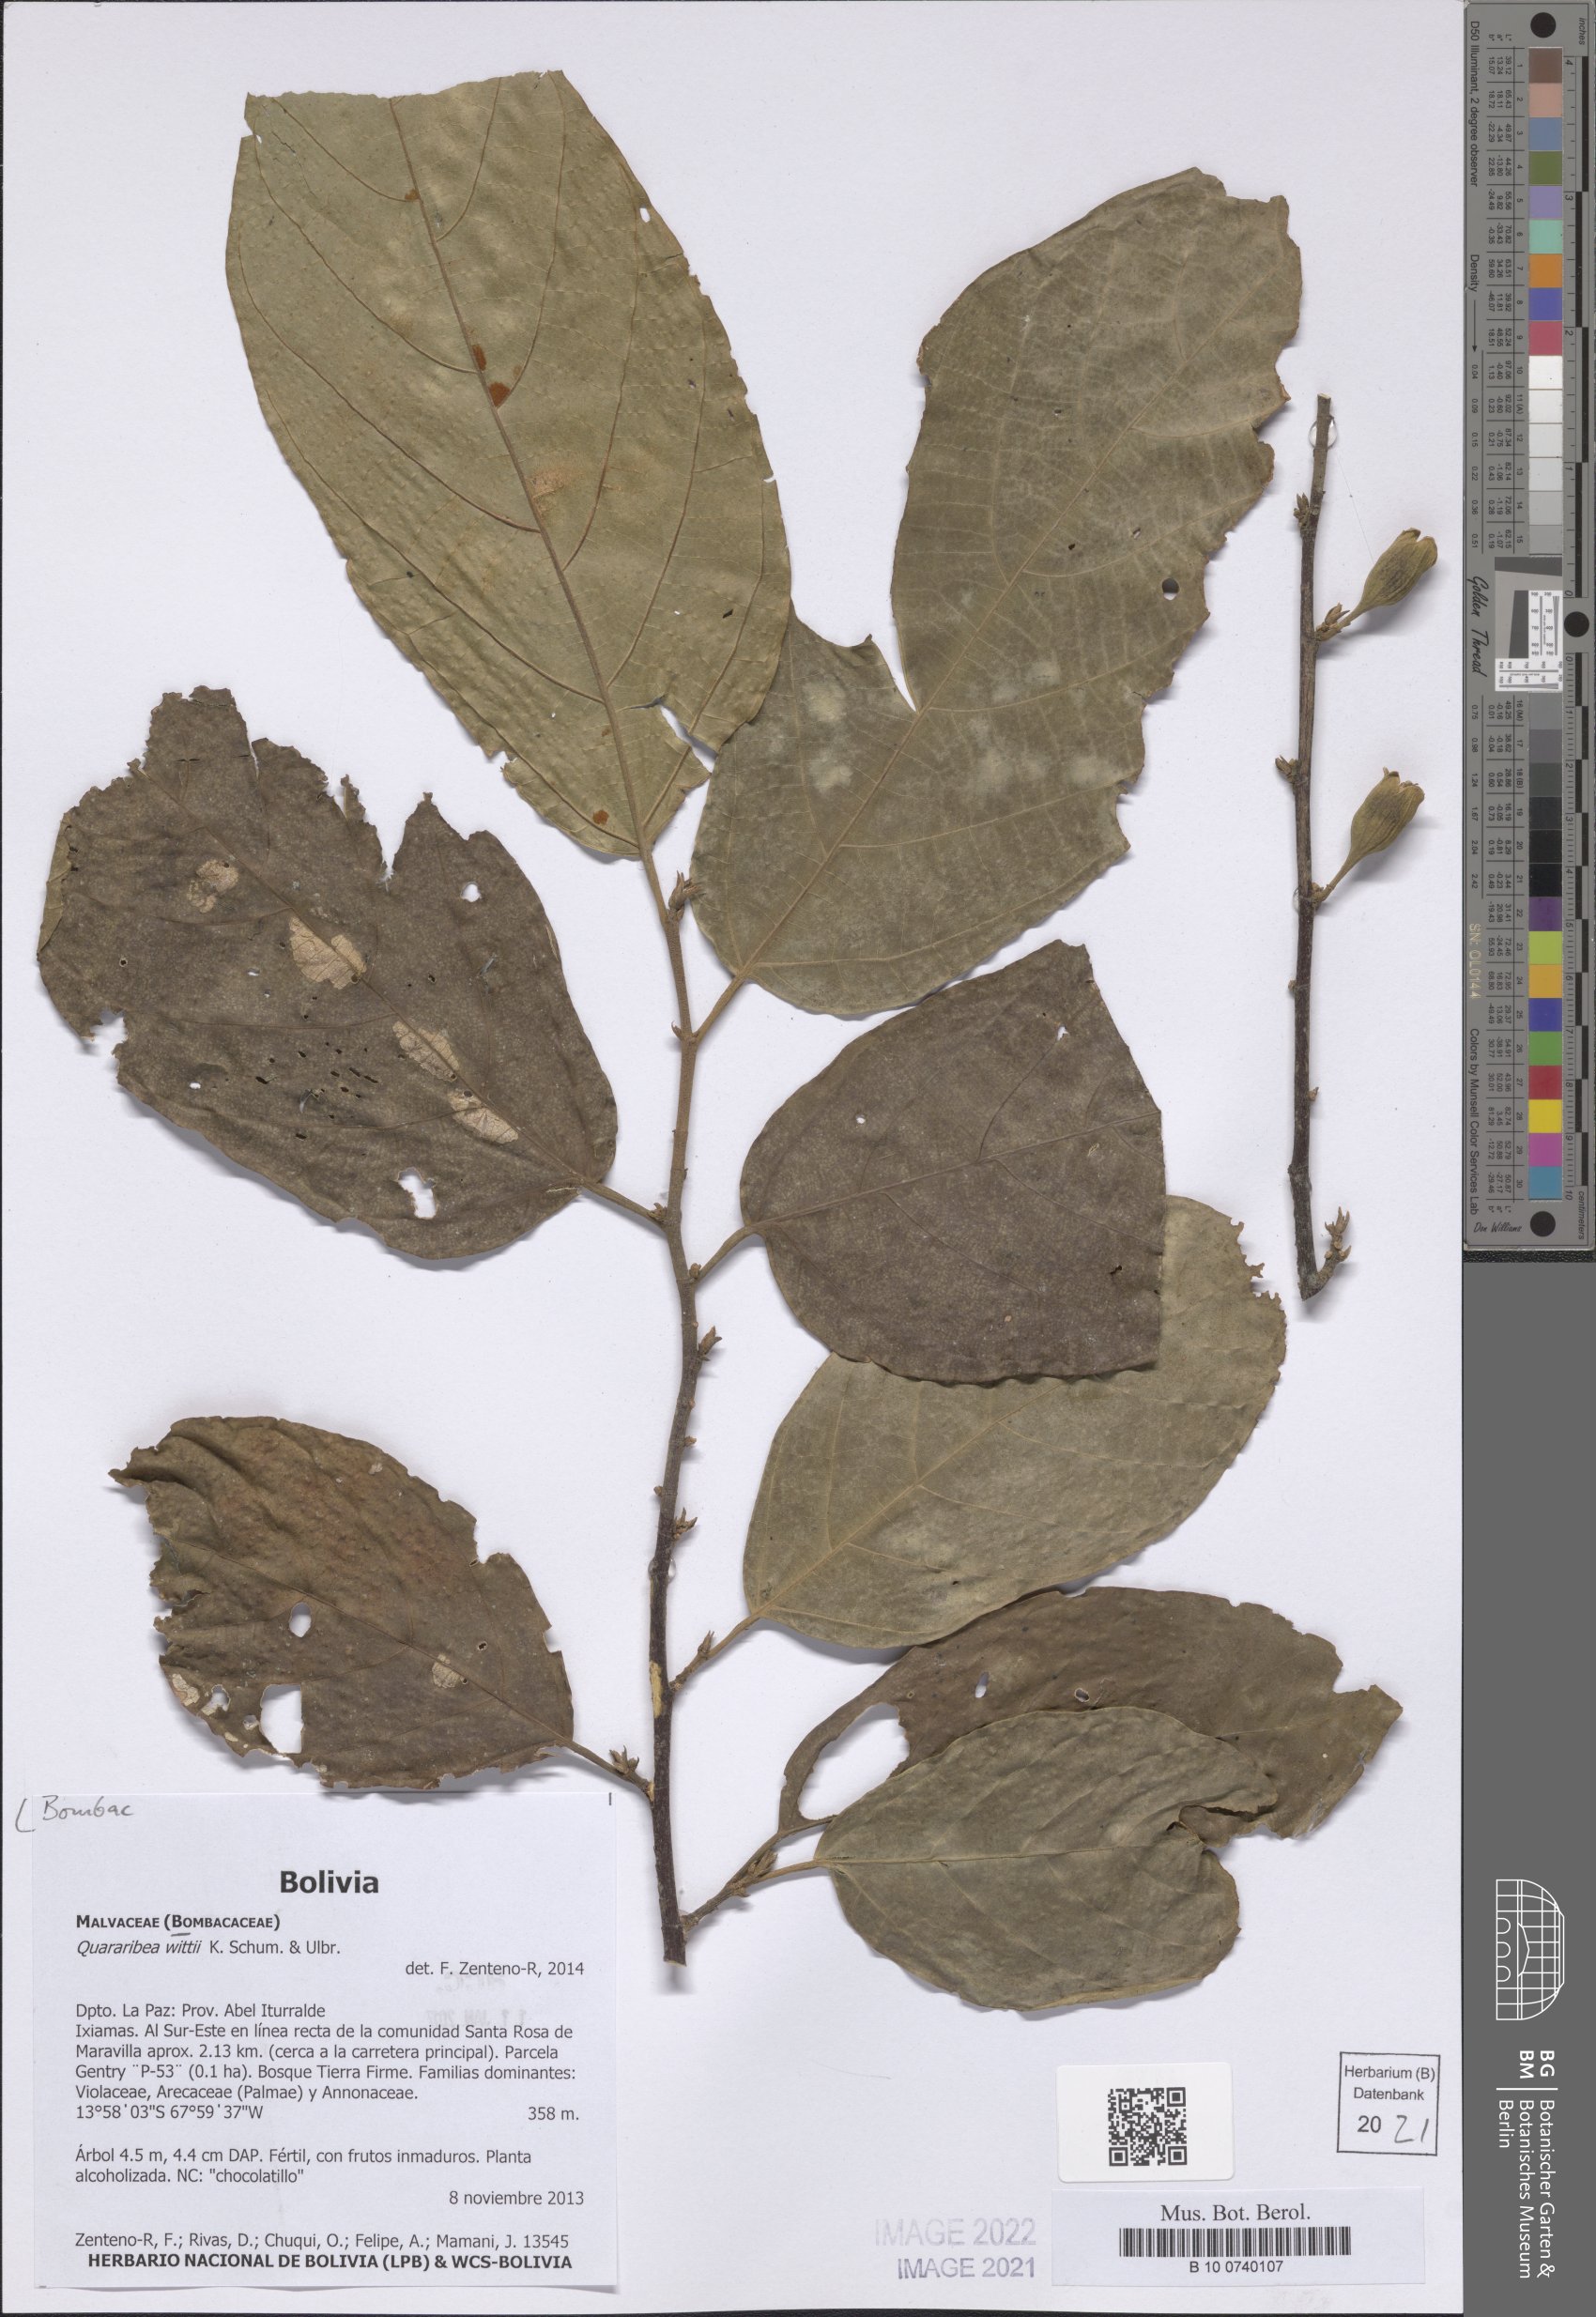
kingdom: Plantae
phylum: Tracheophyta
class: Magnoliopsida
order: Malvales
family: Malvaceae
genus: Quararibea
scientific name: Quararibea wittii
